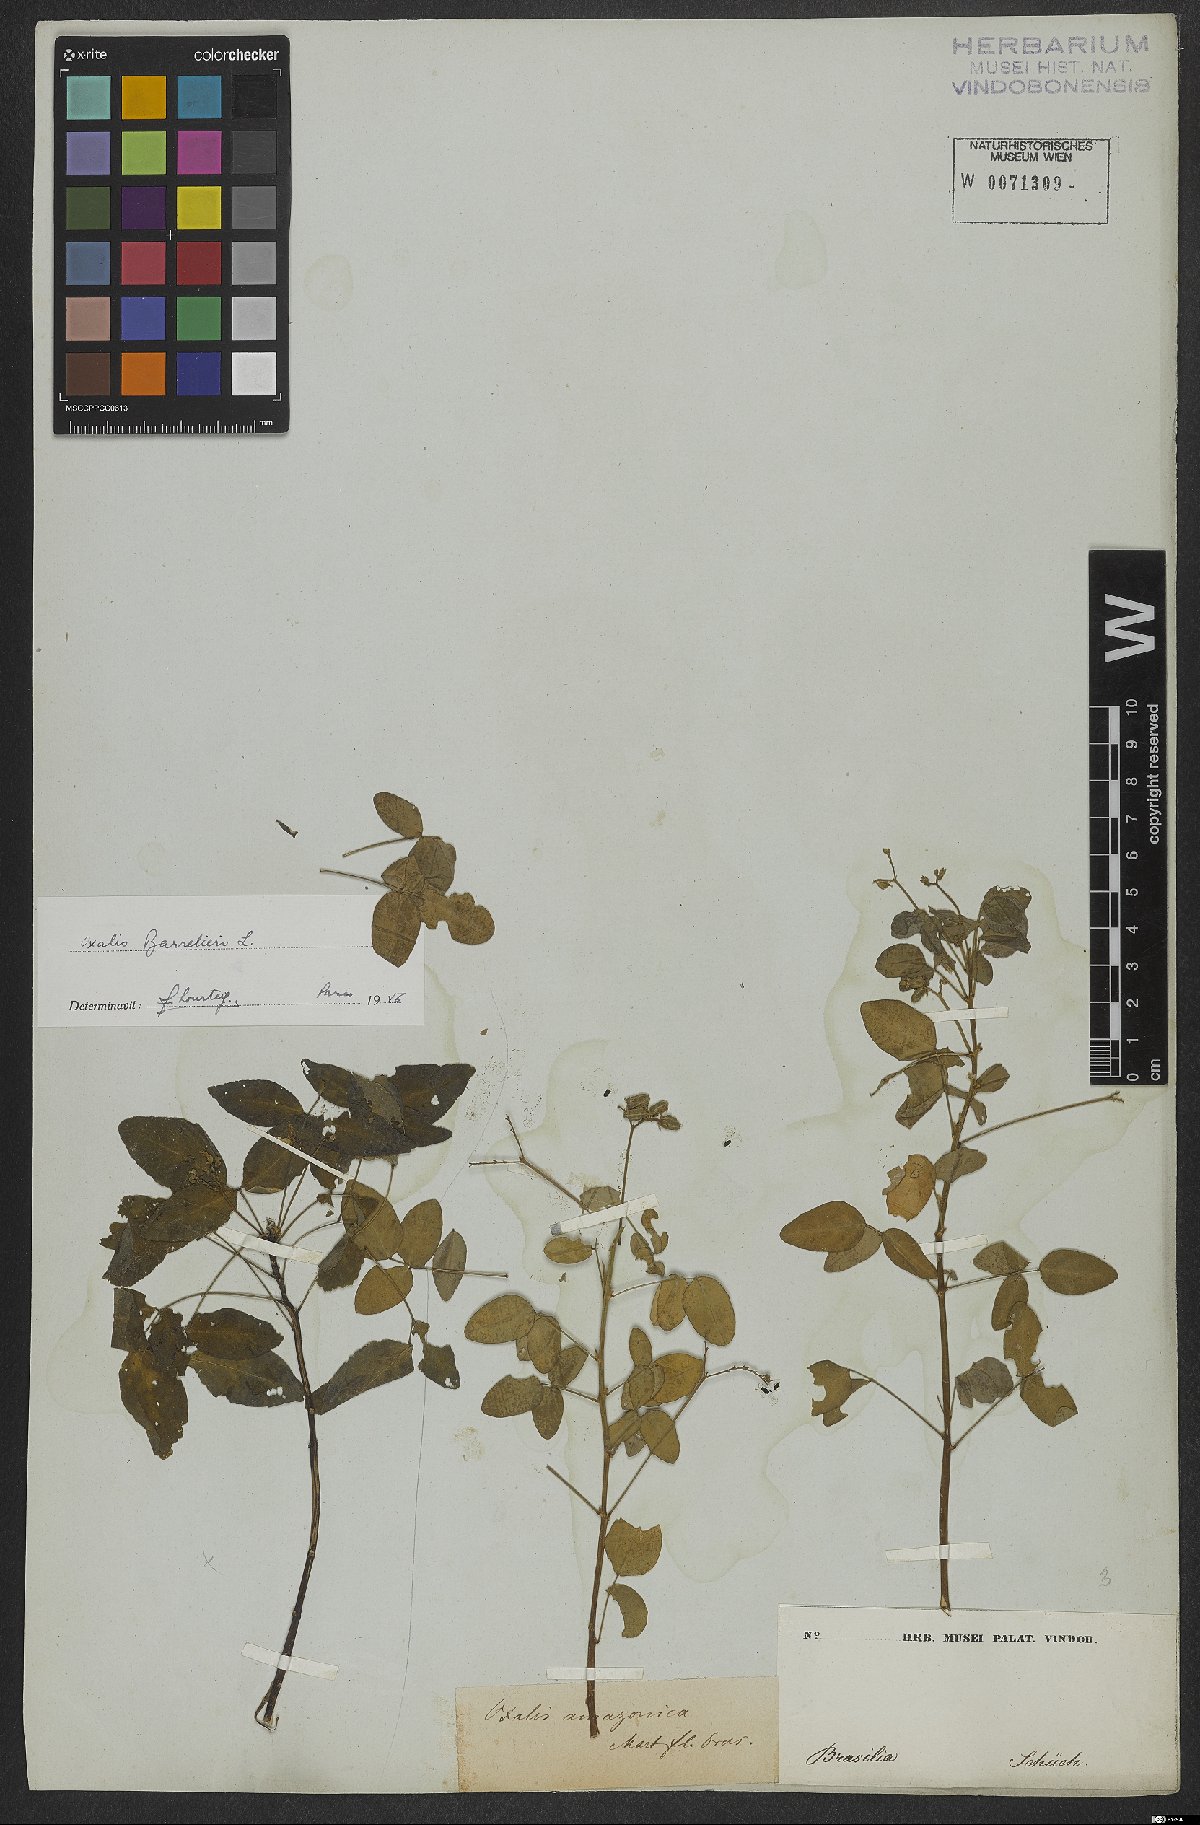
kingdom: Plantae
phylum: Tracheophyta
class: Magnoliopsida
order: Oxalidales
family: Oxalidaceae
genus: Oxalis
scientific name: Oxalis barrelieri
